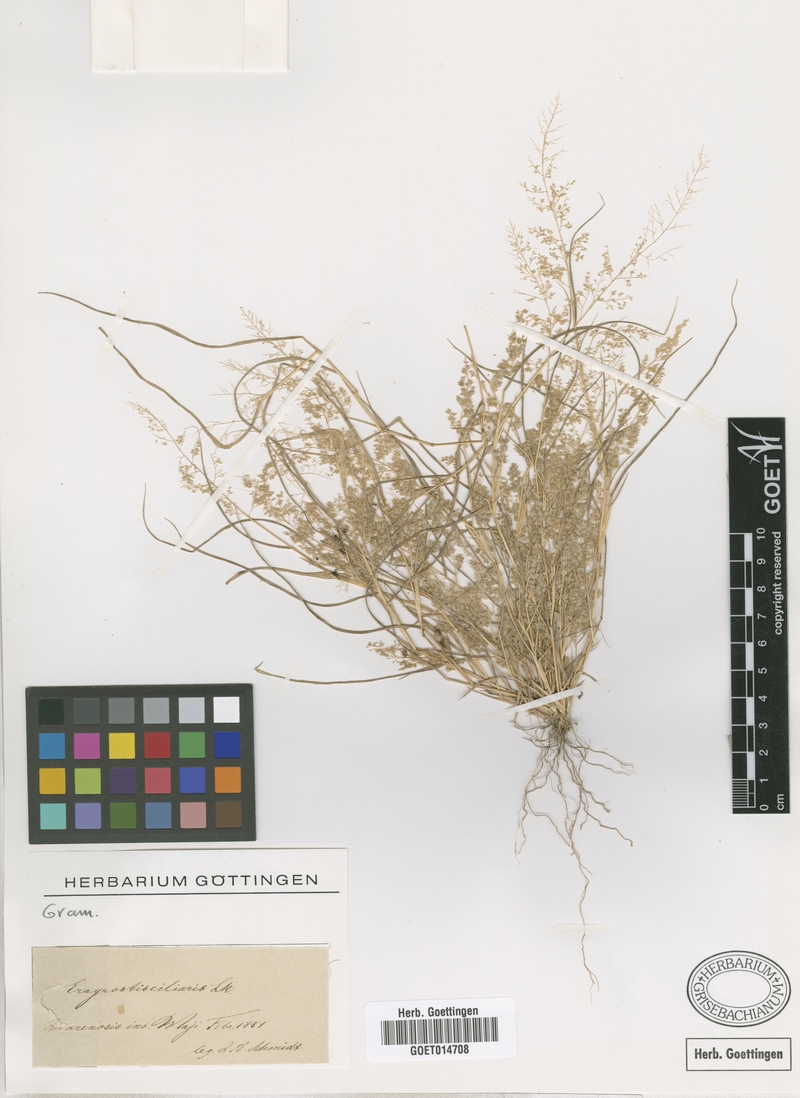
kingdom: Plantae
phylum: Tracheophyta
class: Liliopsida
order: Poales
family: Poaceae
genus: Eragrostis
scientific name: Eragrostis ciliaris
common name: Gophertail lovegrass
